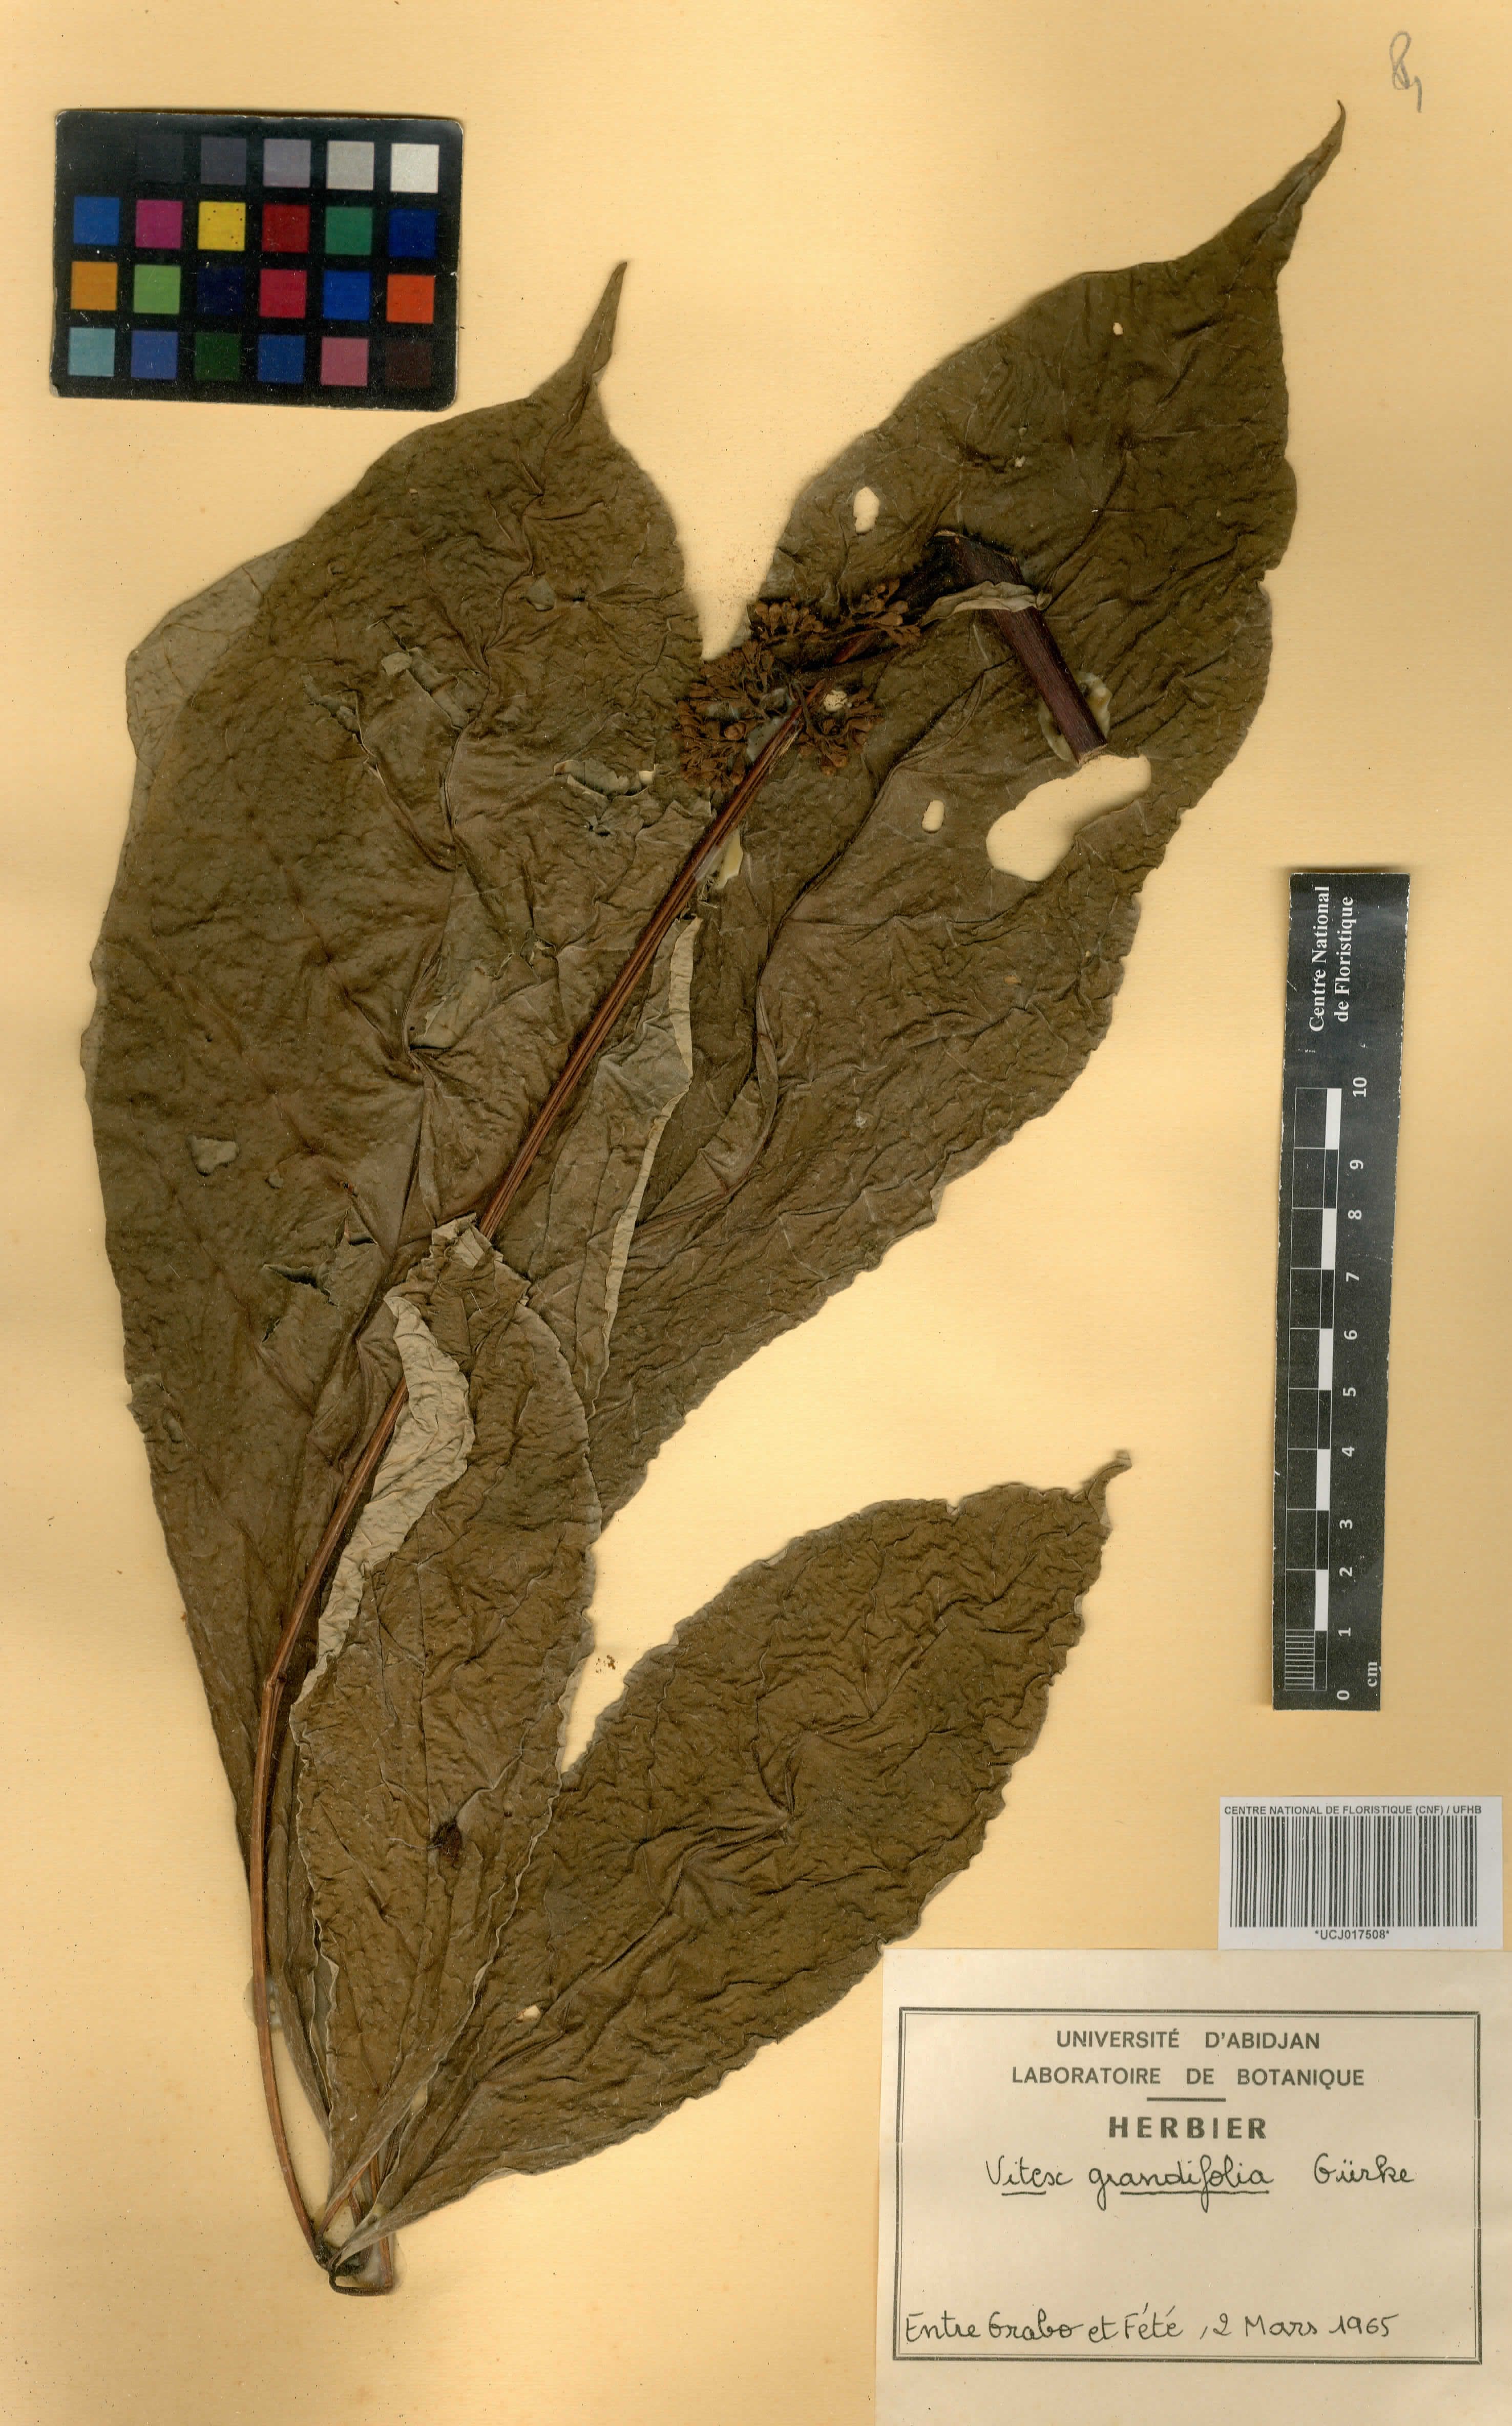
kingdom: Plantae
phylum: Tracheophyta
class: Magnoliopsida
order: Lamiales
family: Lamiaceae
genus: Vitex
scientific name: Vitex grandifolia
